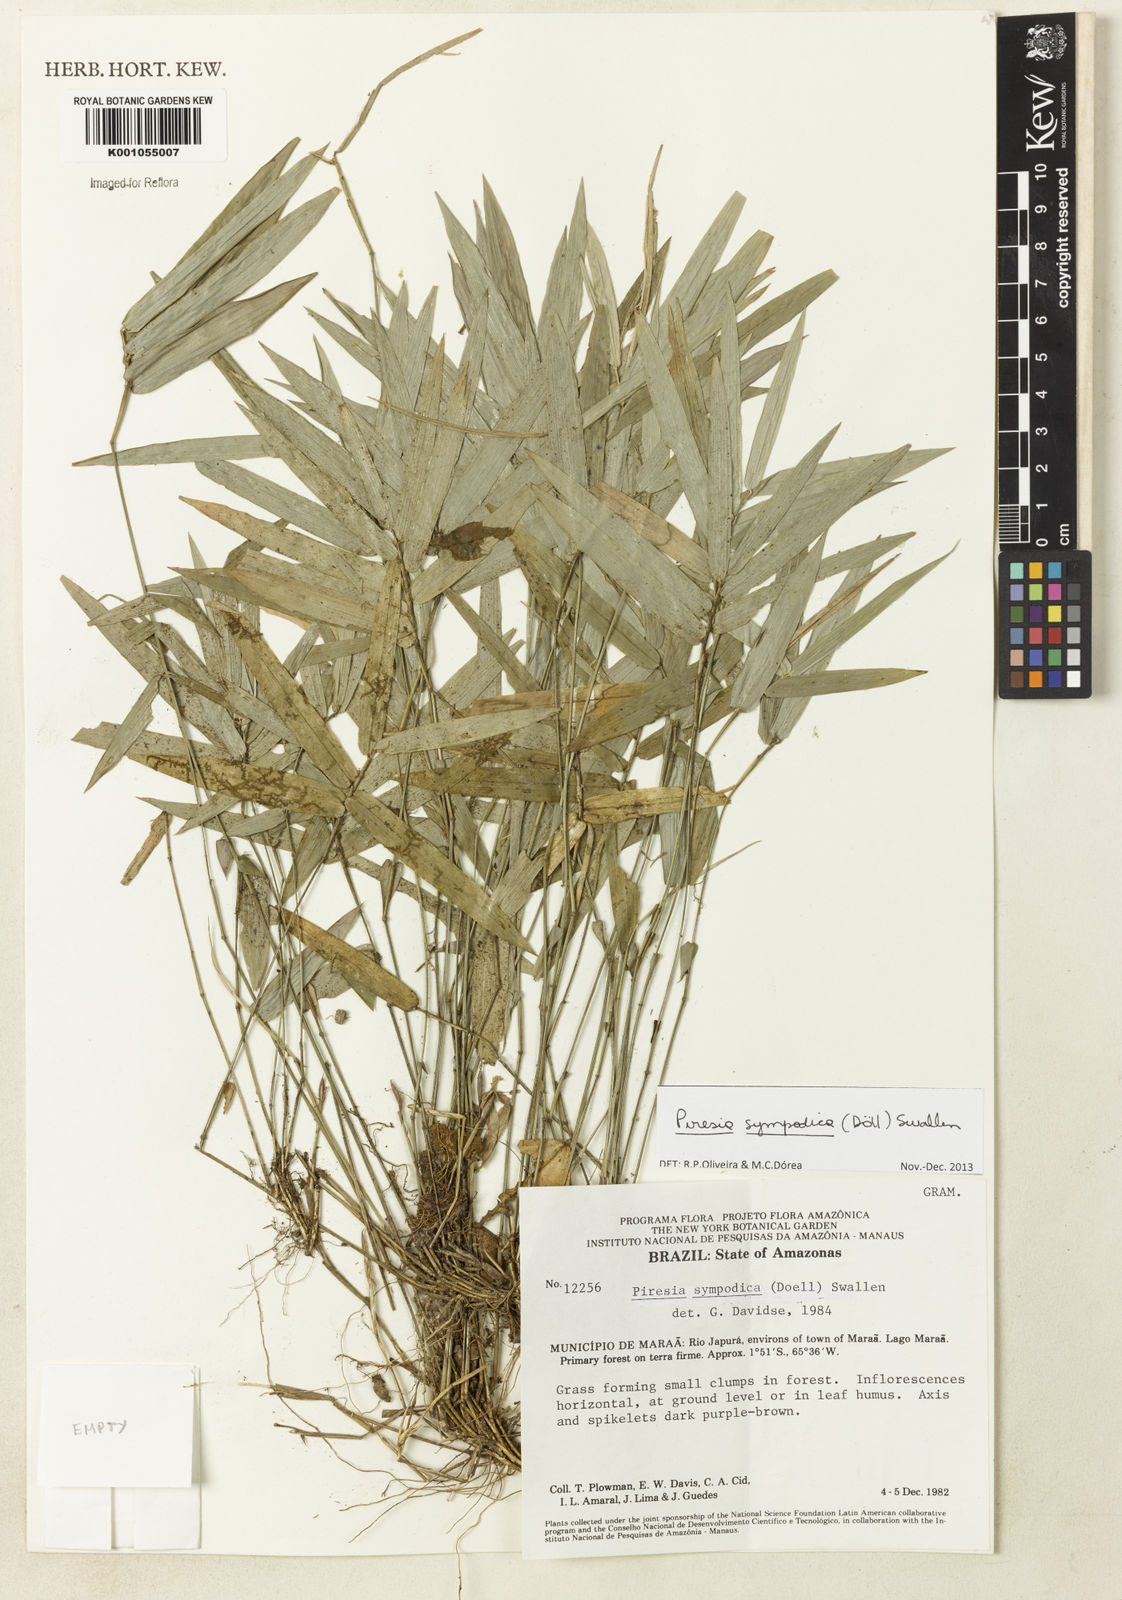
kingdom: Plantae
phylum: Tracheophyta
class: Liliopsida
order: Poales
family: Poaceae
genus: Piresia
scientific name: Piresia
